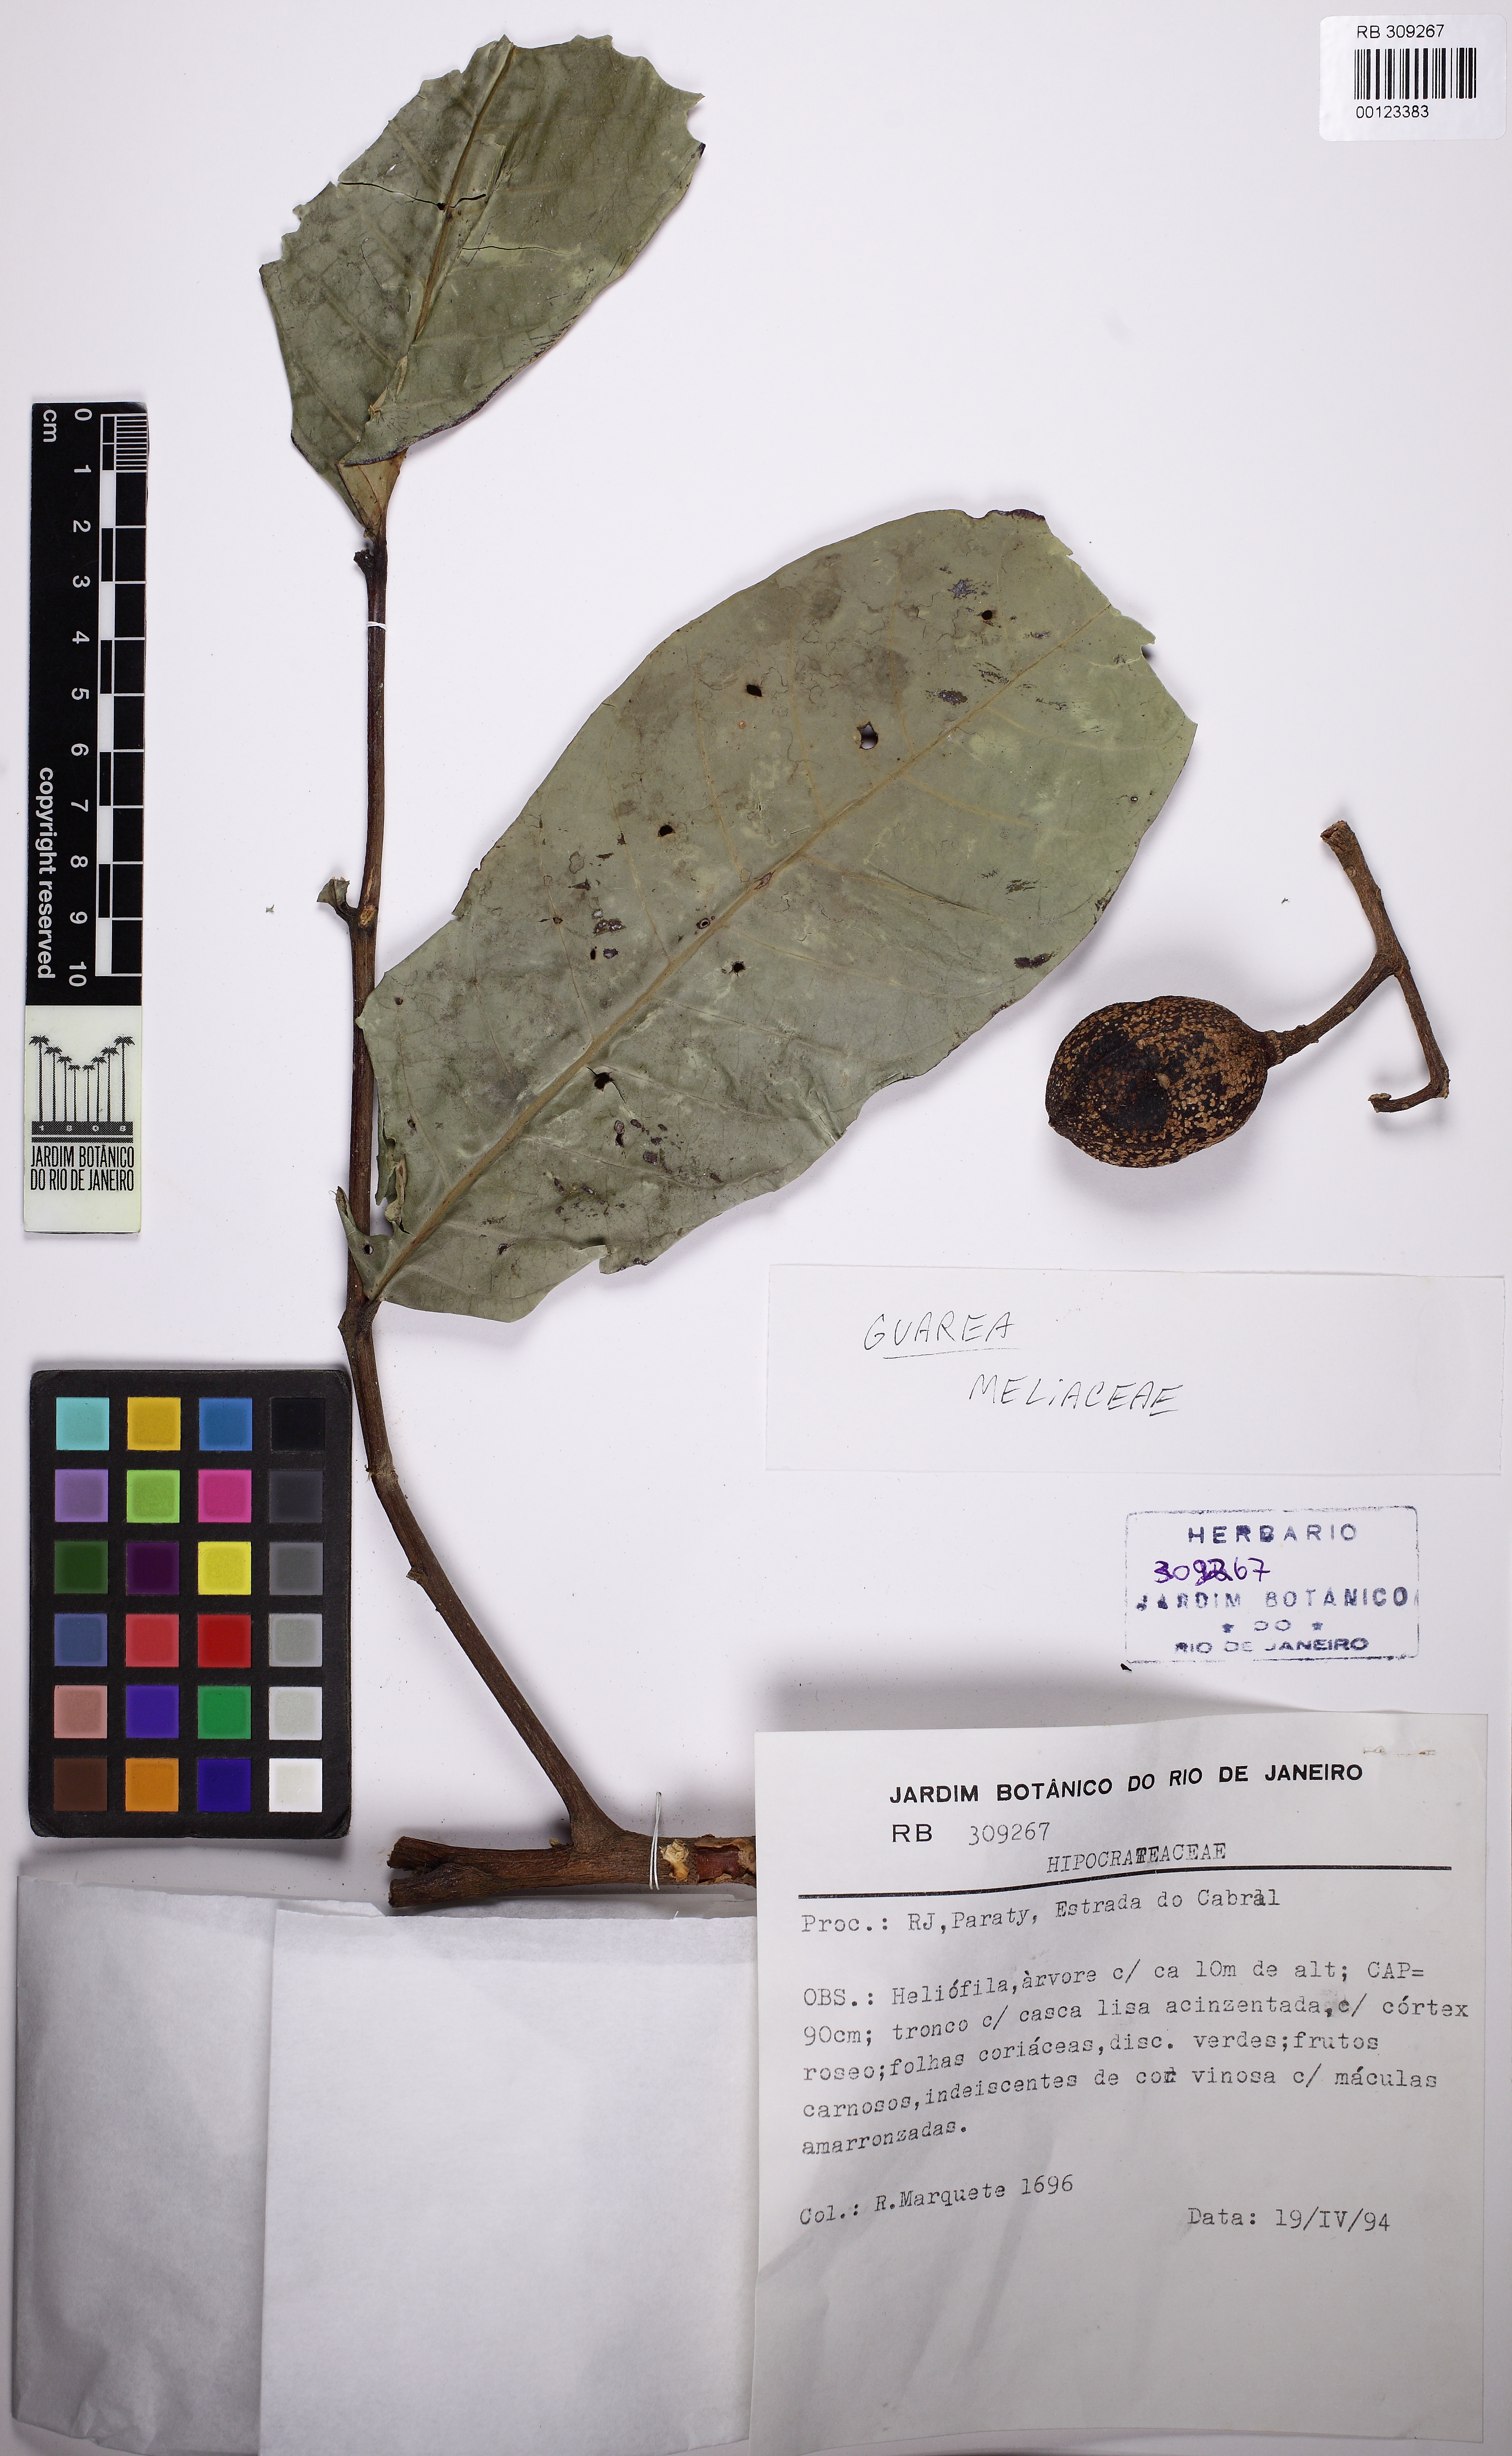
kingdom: Plantae
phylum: Tracheophyta
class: Magnoliopsida
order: Sapindales
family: Meliaceae
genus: Guarea
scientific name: Guarea
